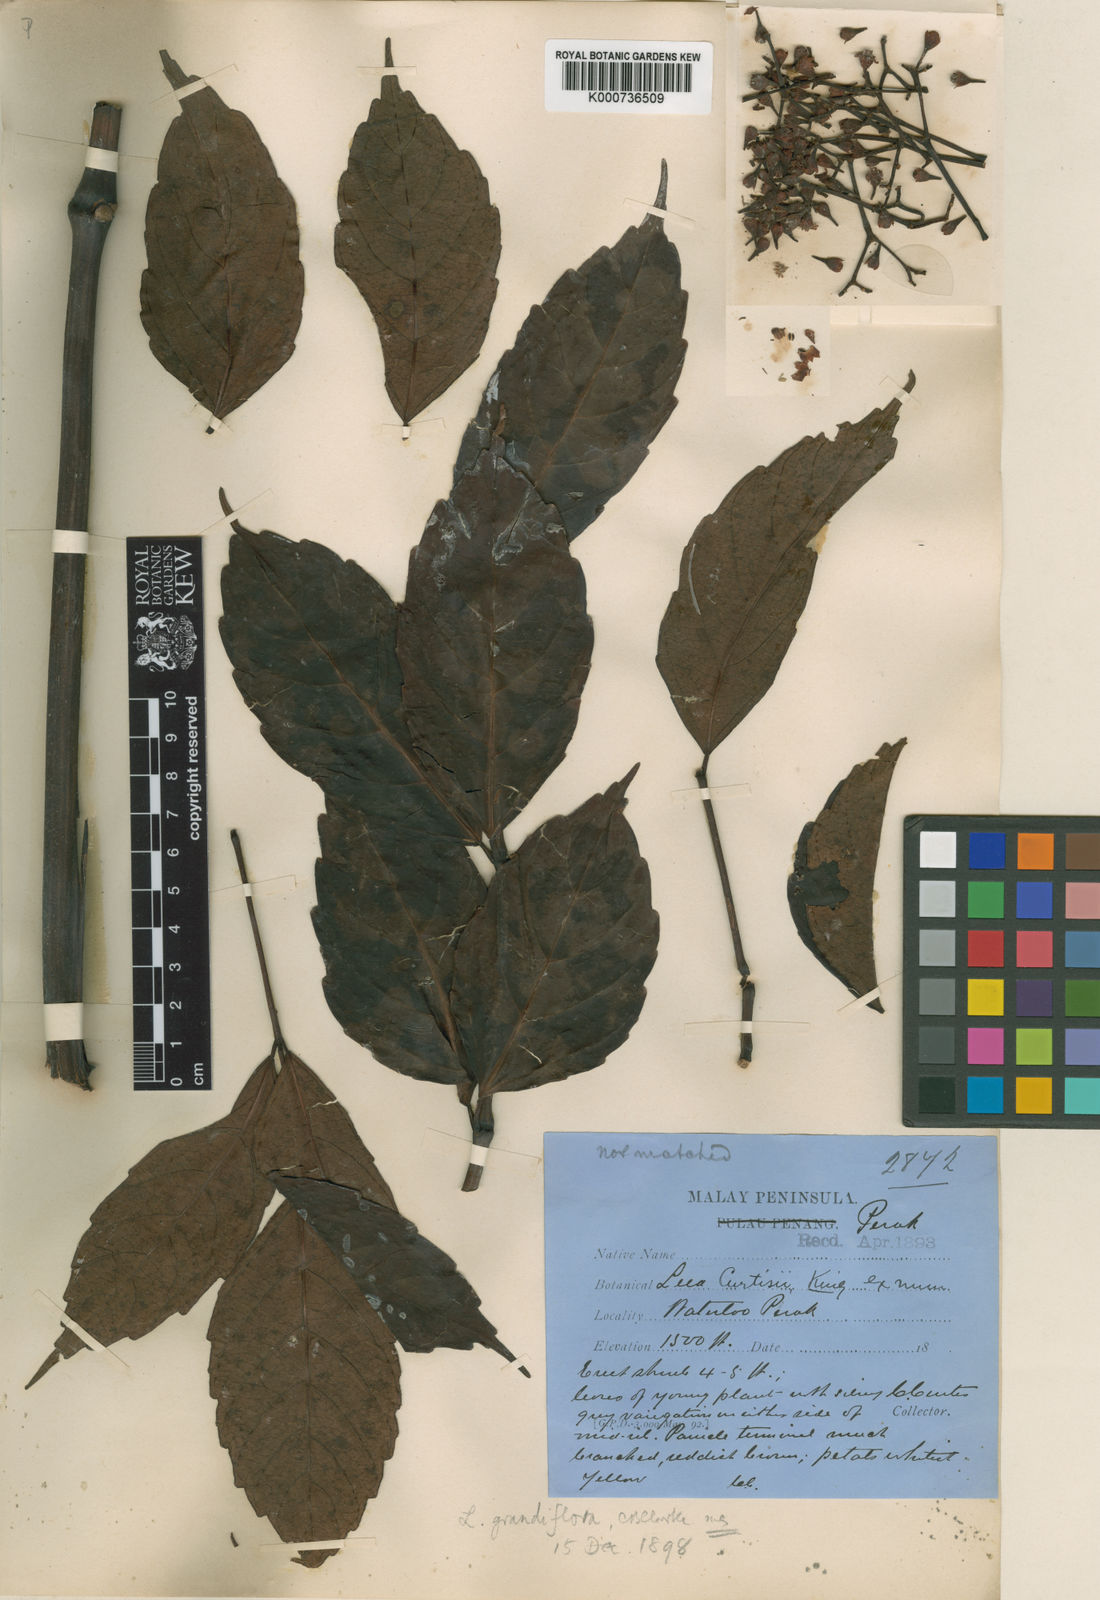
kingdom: Plantae
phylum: Tracheophyta
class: Magnoliopsida
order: Vitales
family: Vitaceae
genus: Leea
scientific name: Leea curtisii
